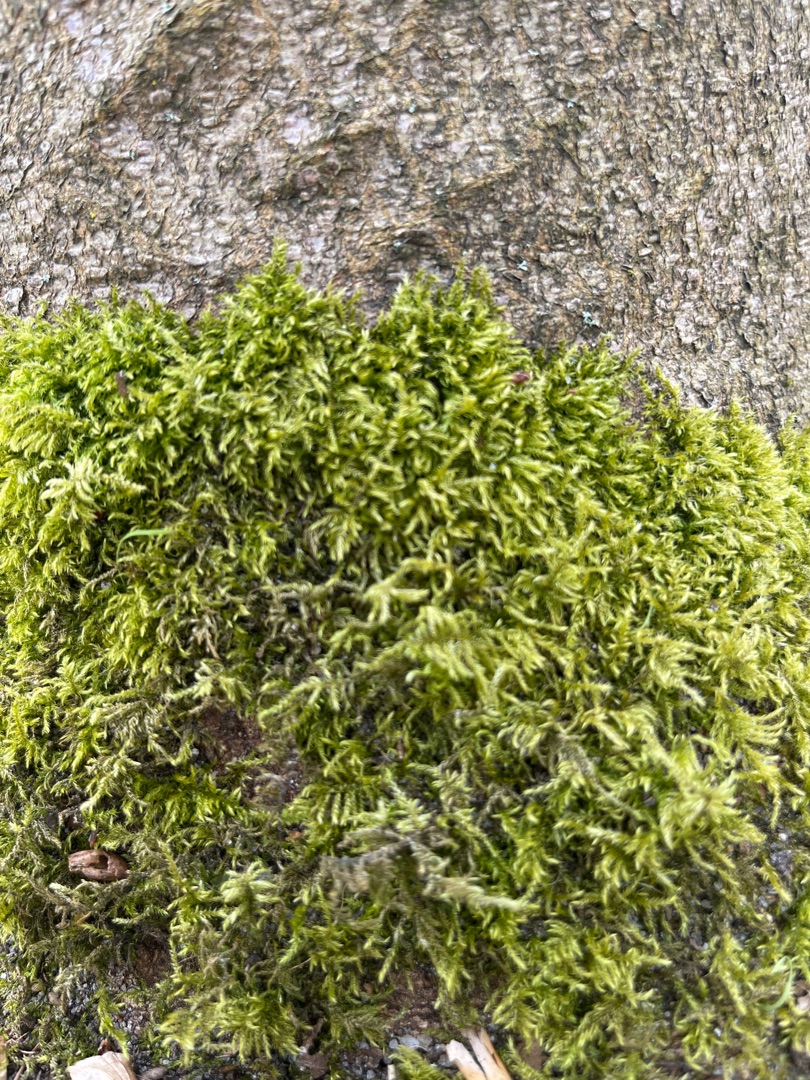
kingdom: Plantae
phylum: Bryophyta
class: Bryopsida
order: Hypnales
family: Brachytheciaceae
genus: Kindbergia
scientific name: Kindbergia praelonga
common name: Forskelligbladet vortetand
